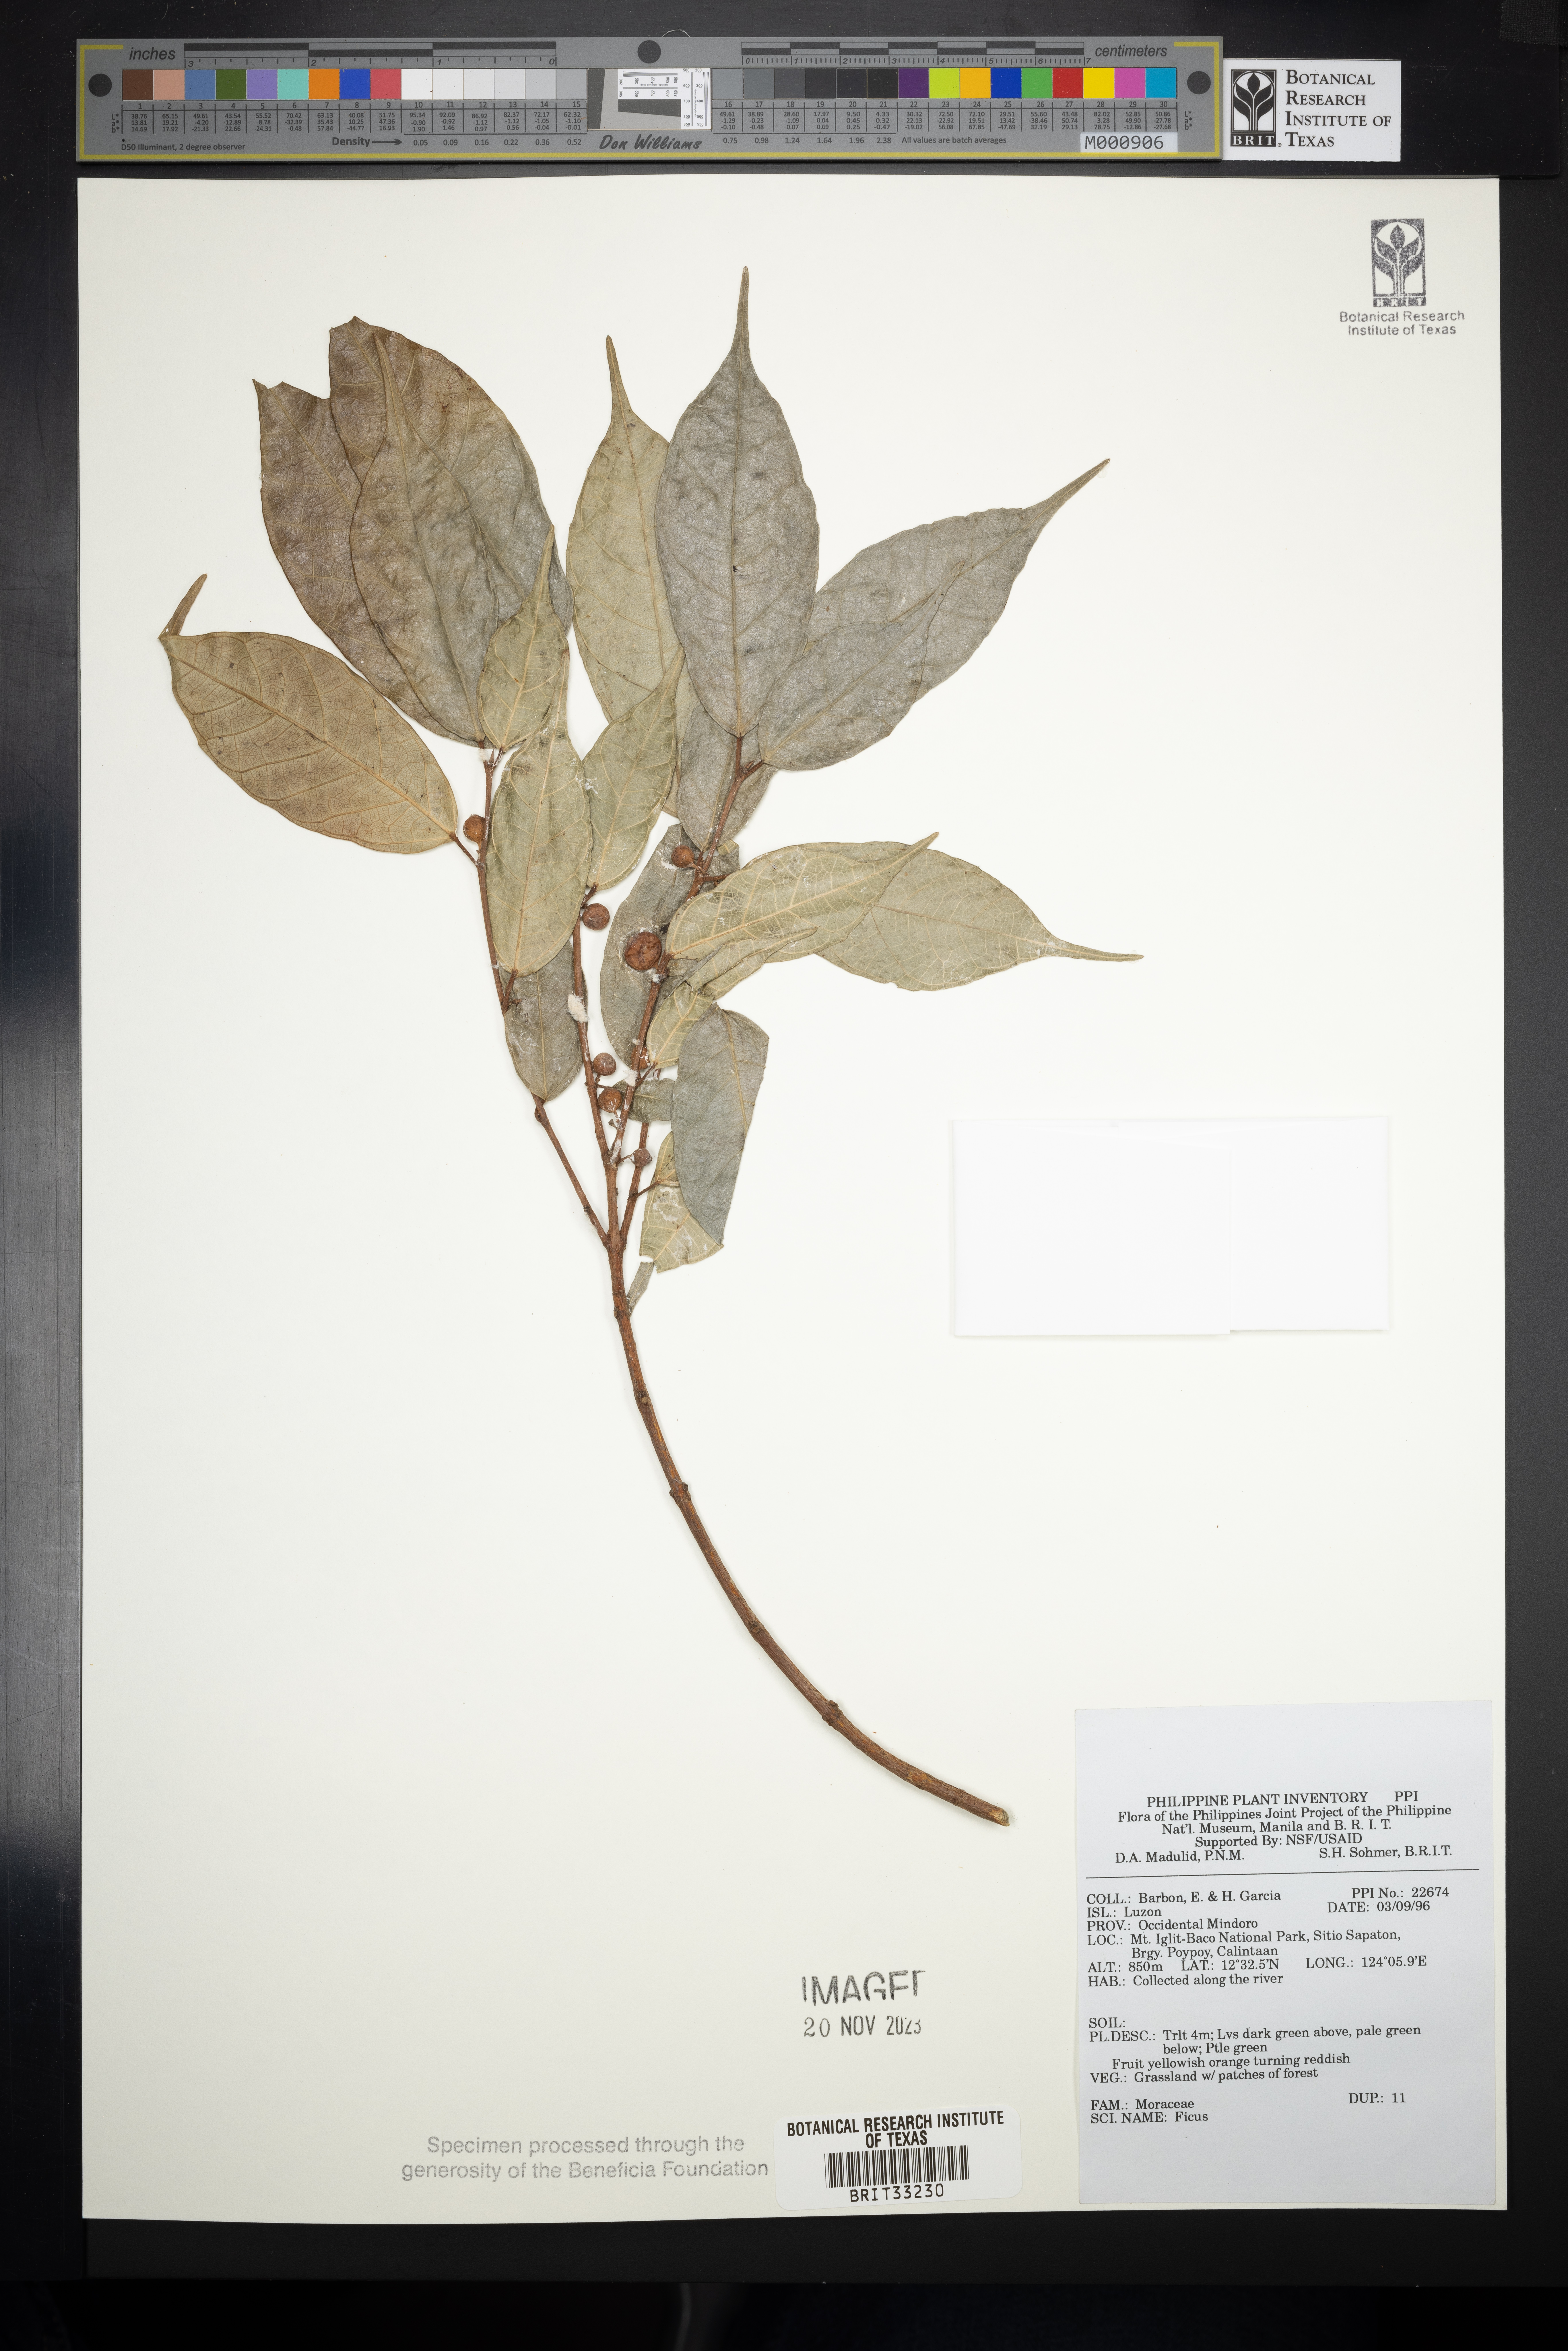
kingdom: Plantae
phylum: Tracheophyta
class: Magnoliopsida
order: Rosales
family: Moraceae
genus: Ficus
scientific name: Ficus
